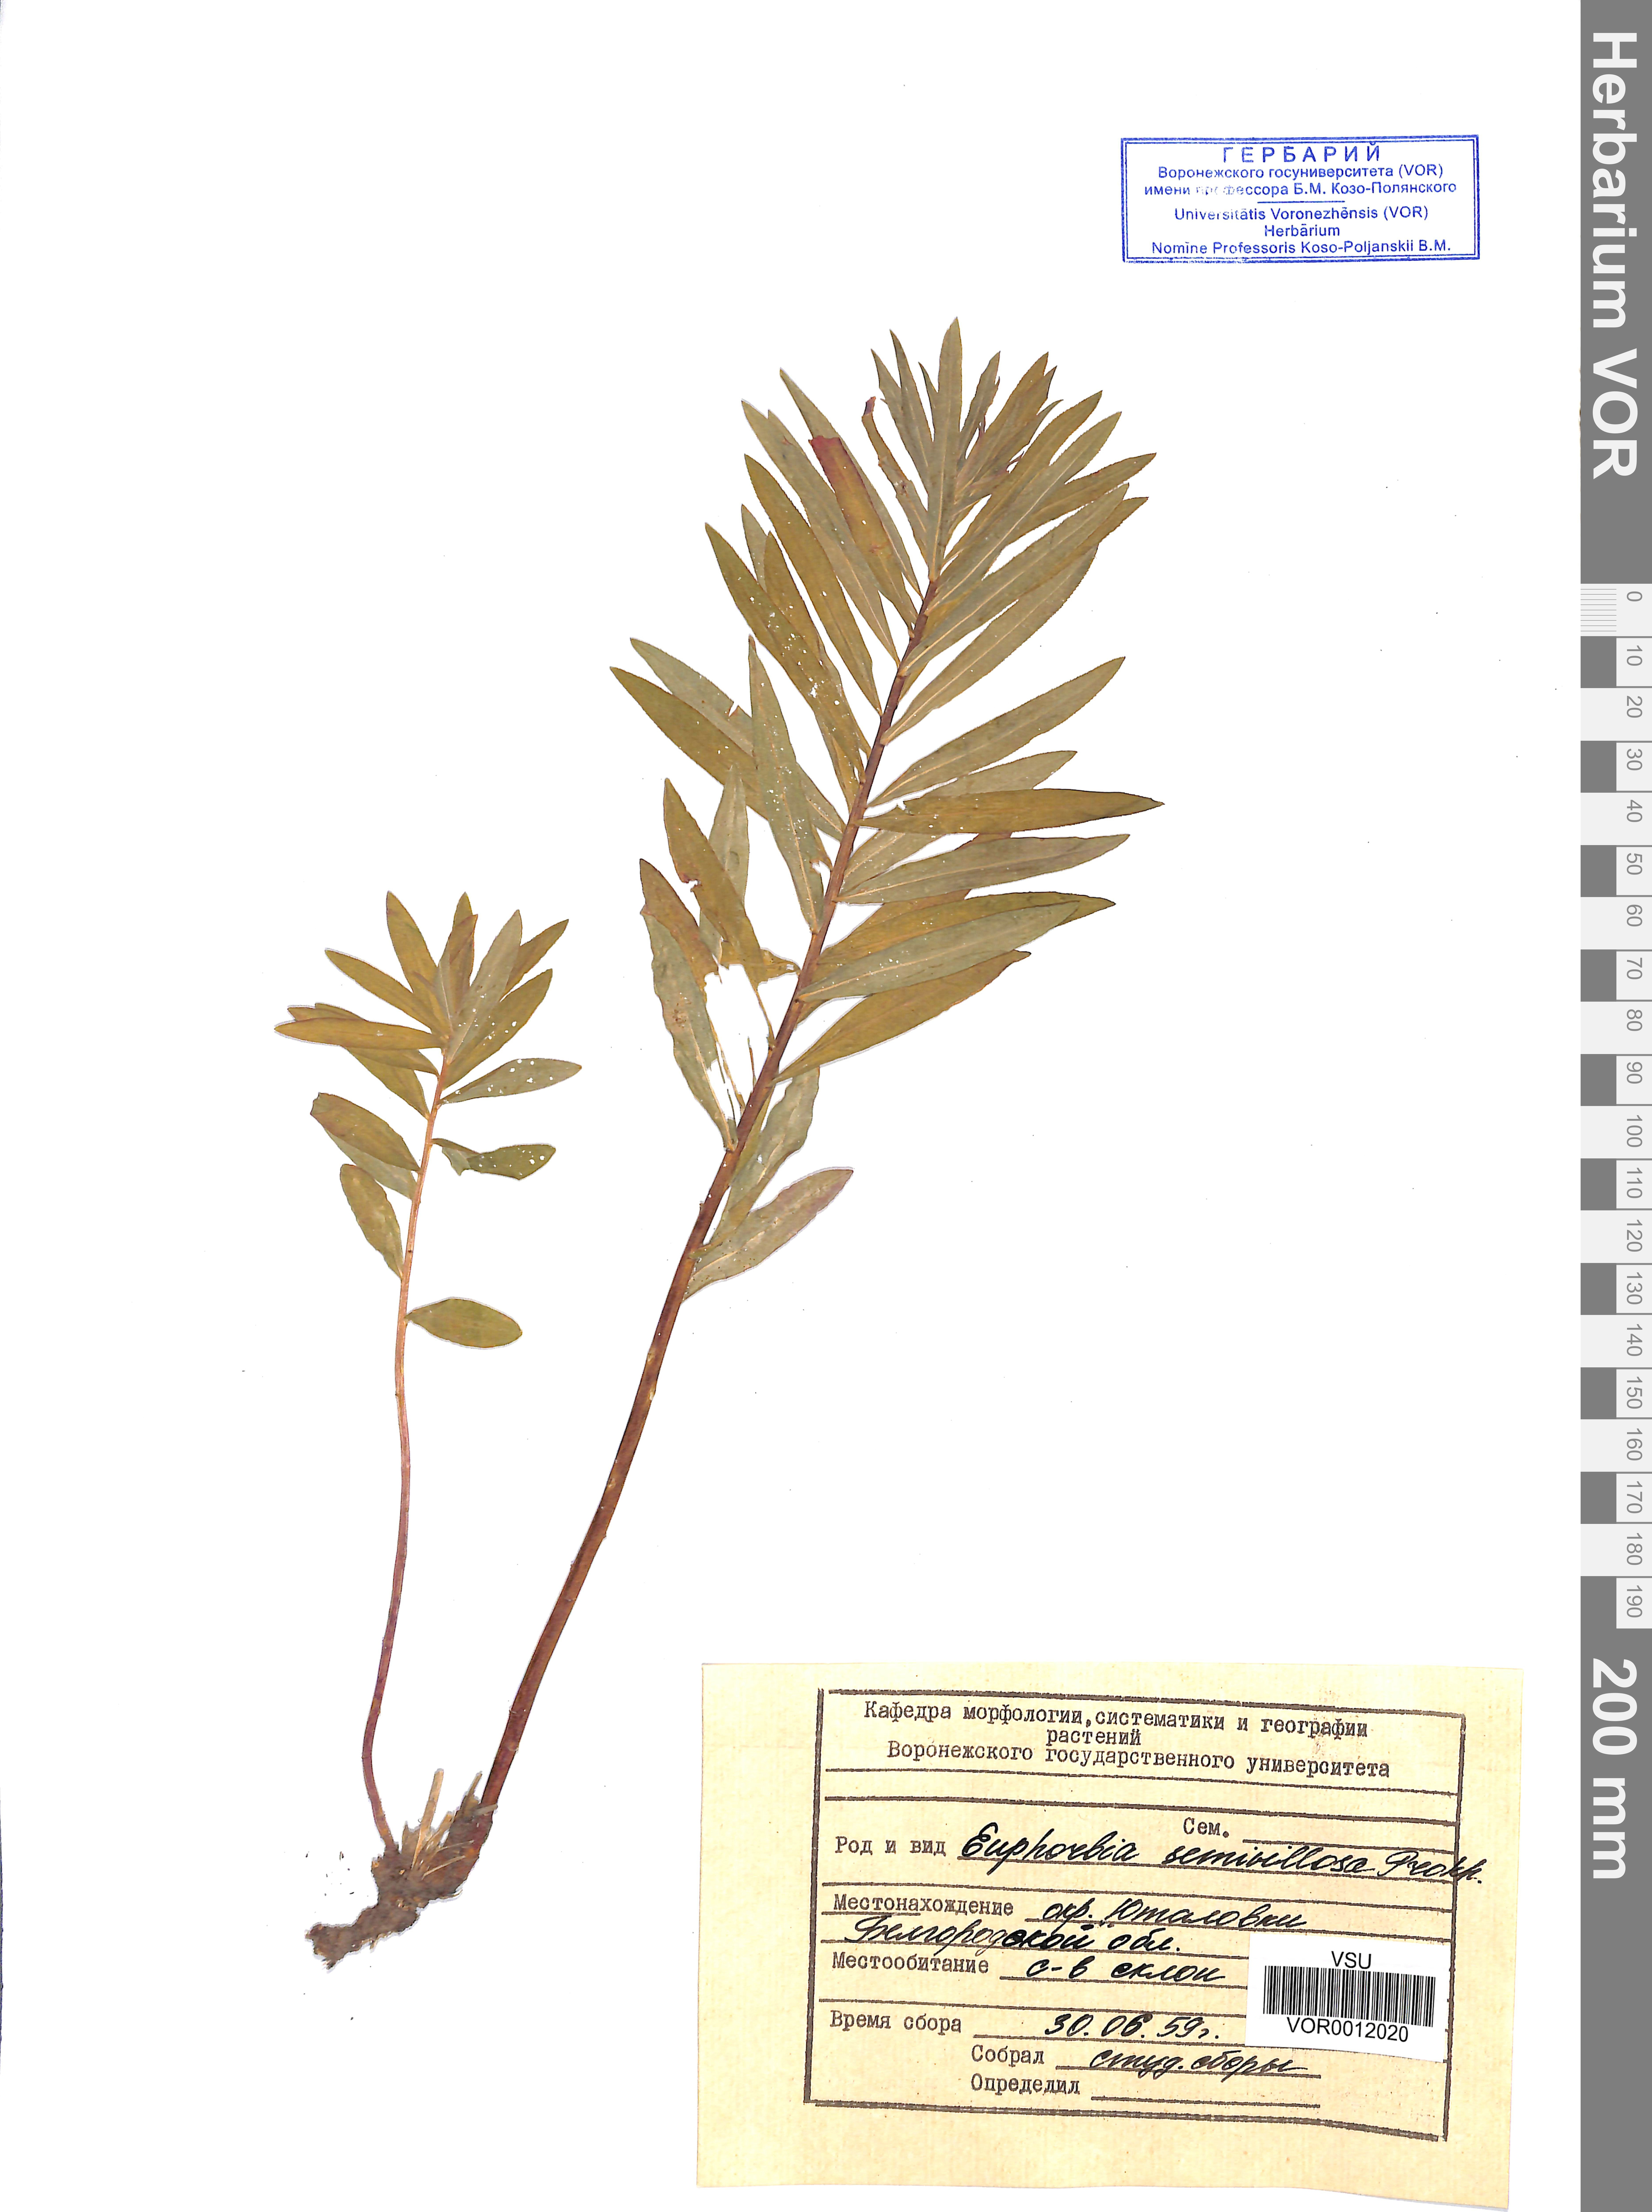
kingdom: Plantae
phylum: Tracheophyta
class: Magnoliopsida
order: Malpighiales
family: Euphorbiaceae
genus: Euphorbia
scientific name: Euphorbia semivillosa
